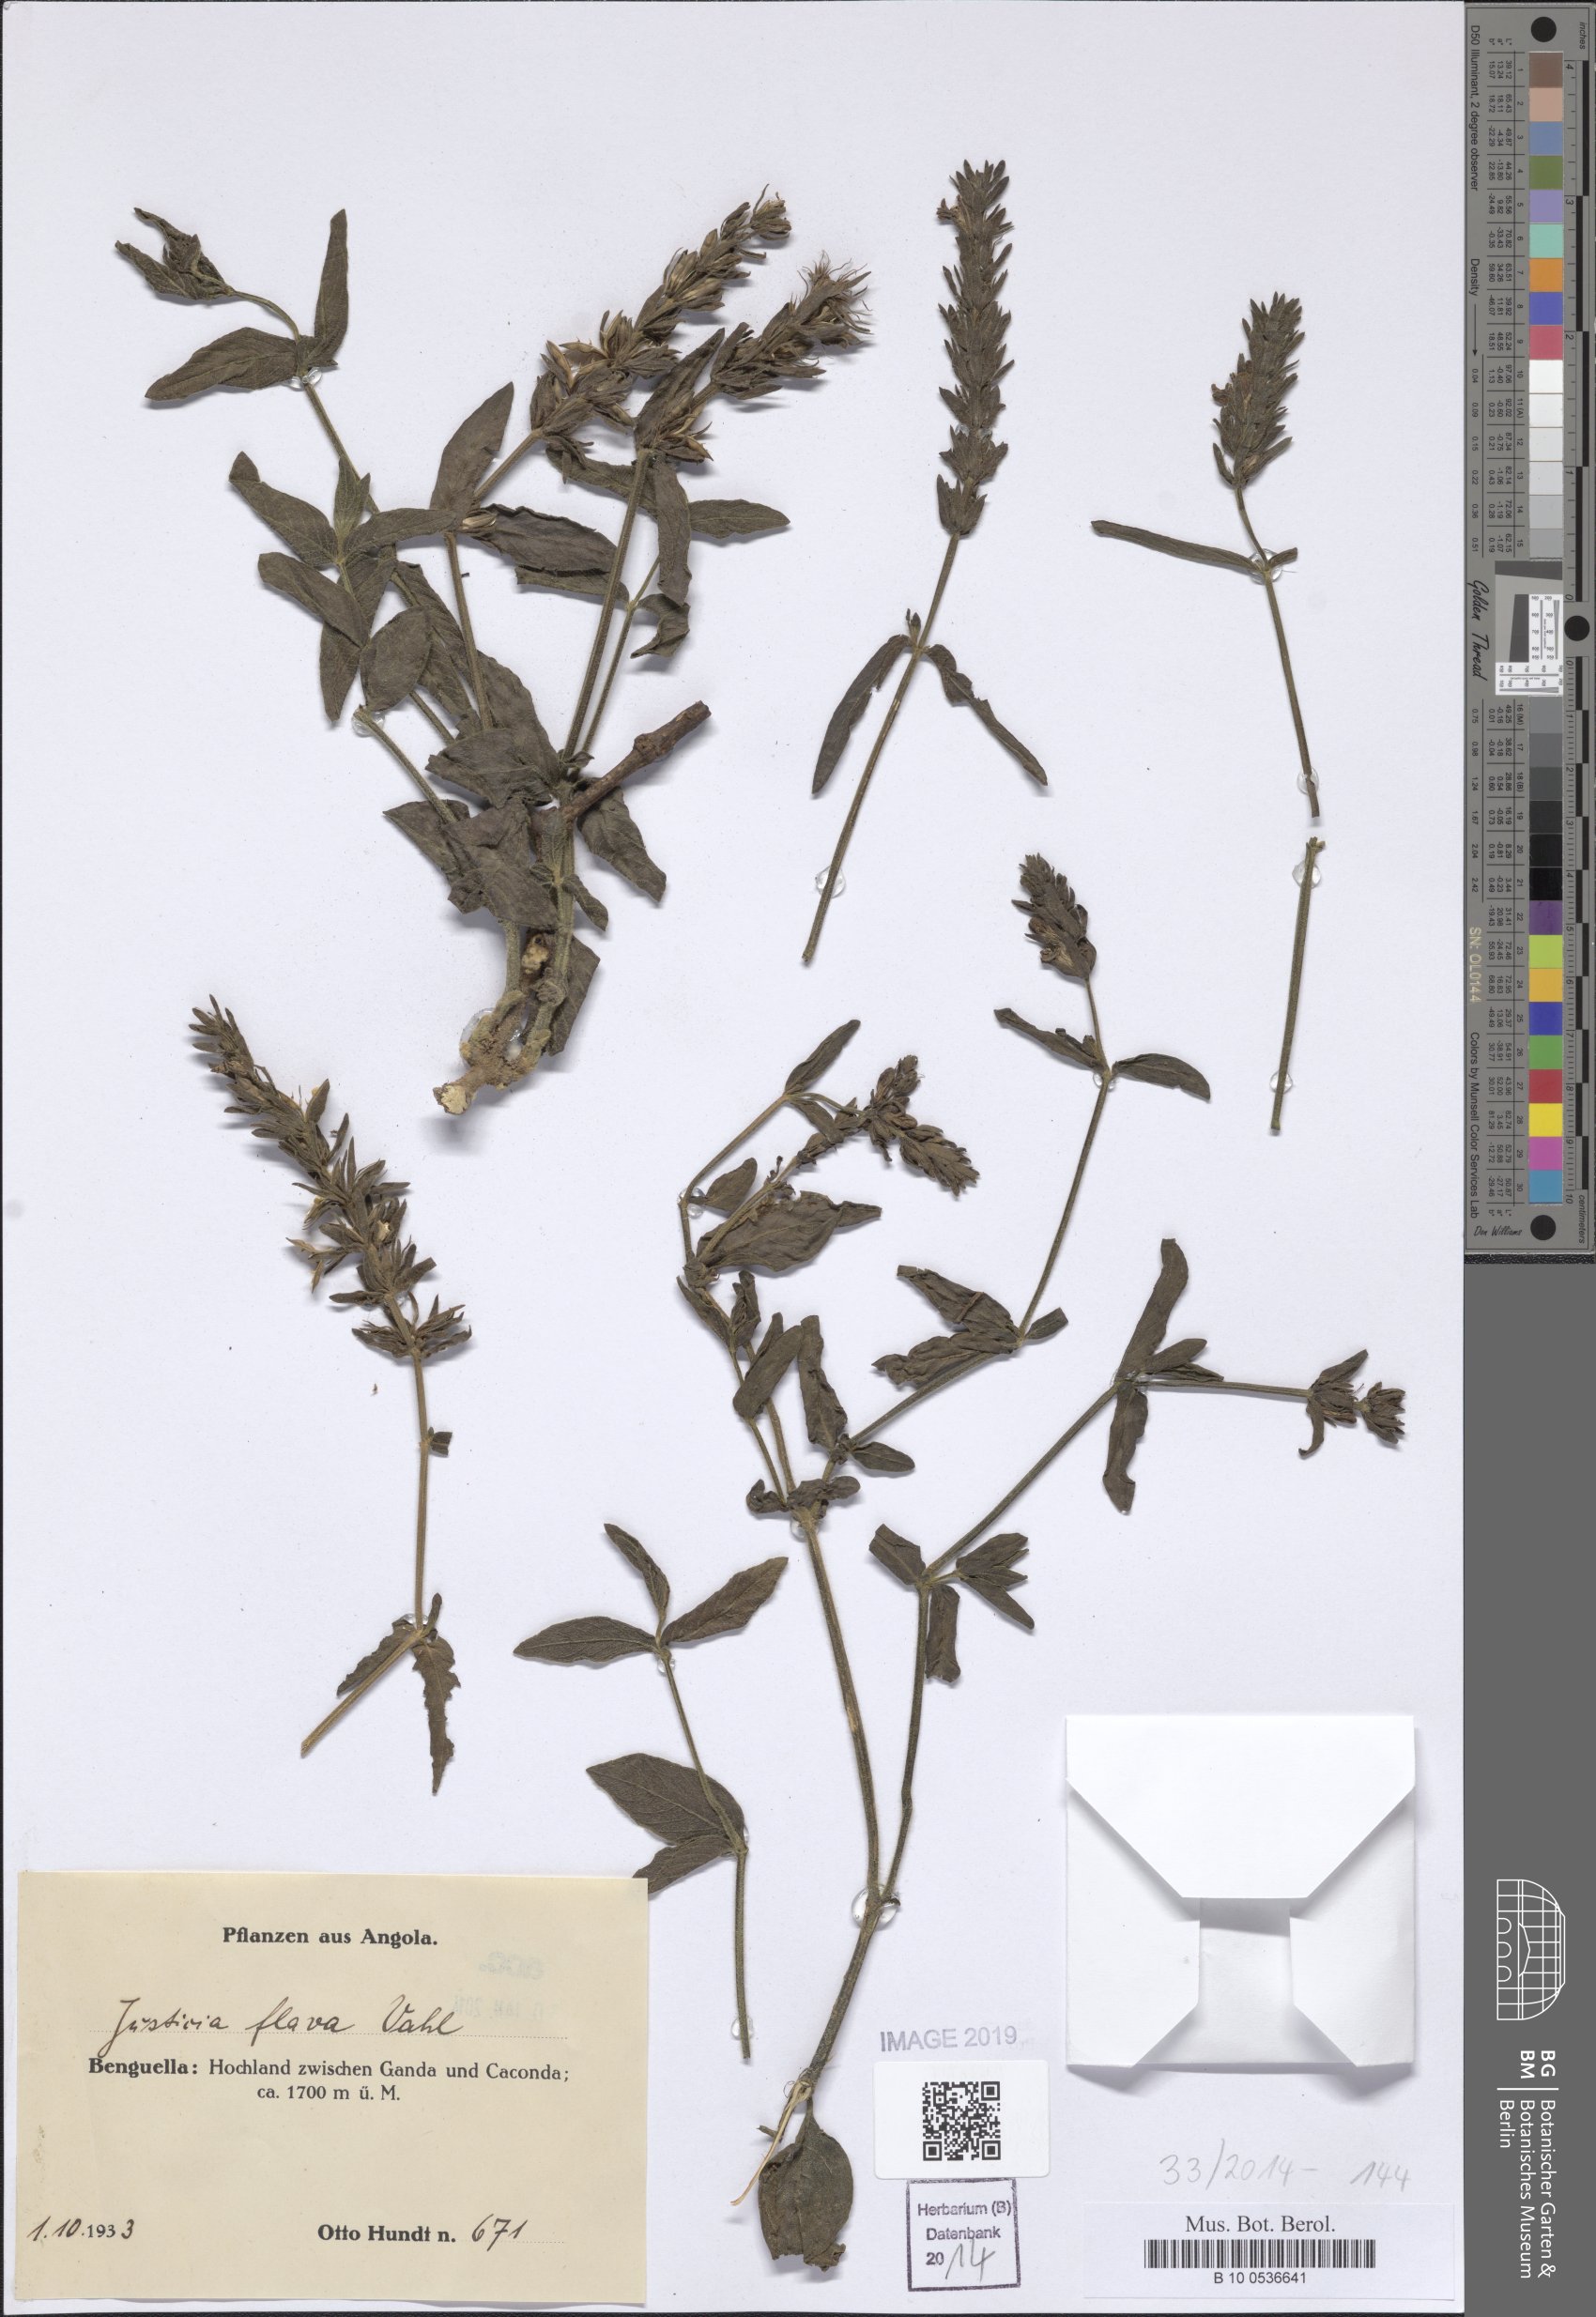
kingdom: Plantae
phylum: Tracheophyta
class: Magnoliopsida
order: Lamiales
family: Acanthaceae
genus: Justicia
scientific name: Justicia flava
